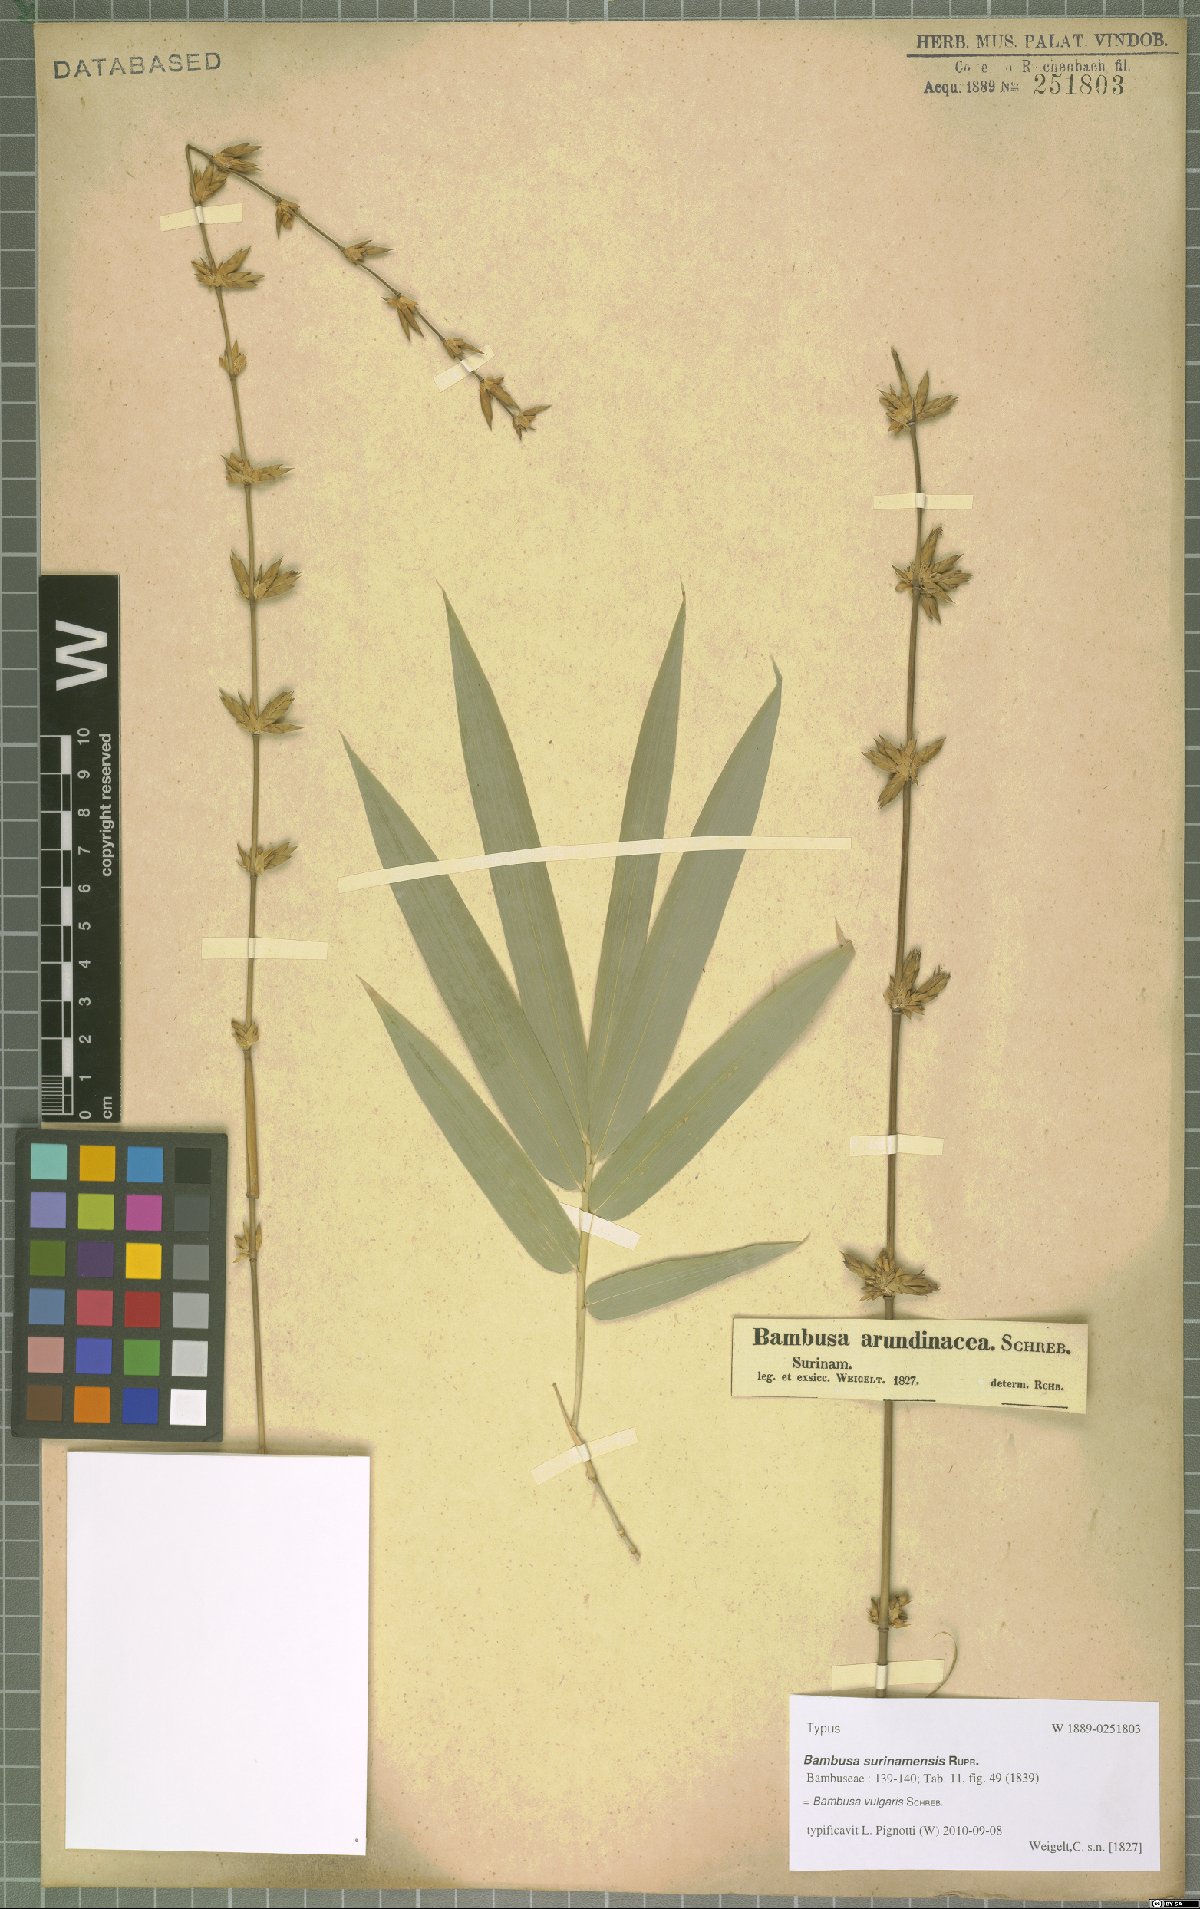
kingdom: Plantae
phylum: Tracheophyta
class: Liliopsida
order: Poales
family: Poaceae
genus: Bambusa
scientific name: Bambusa vulgaris
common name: Common bamboo
